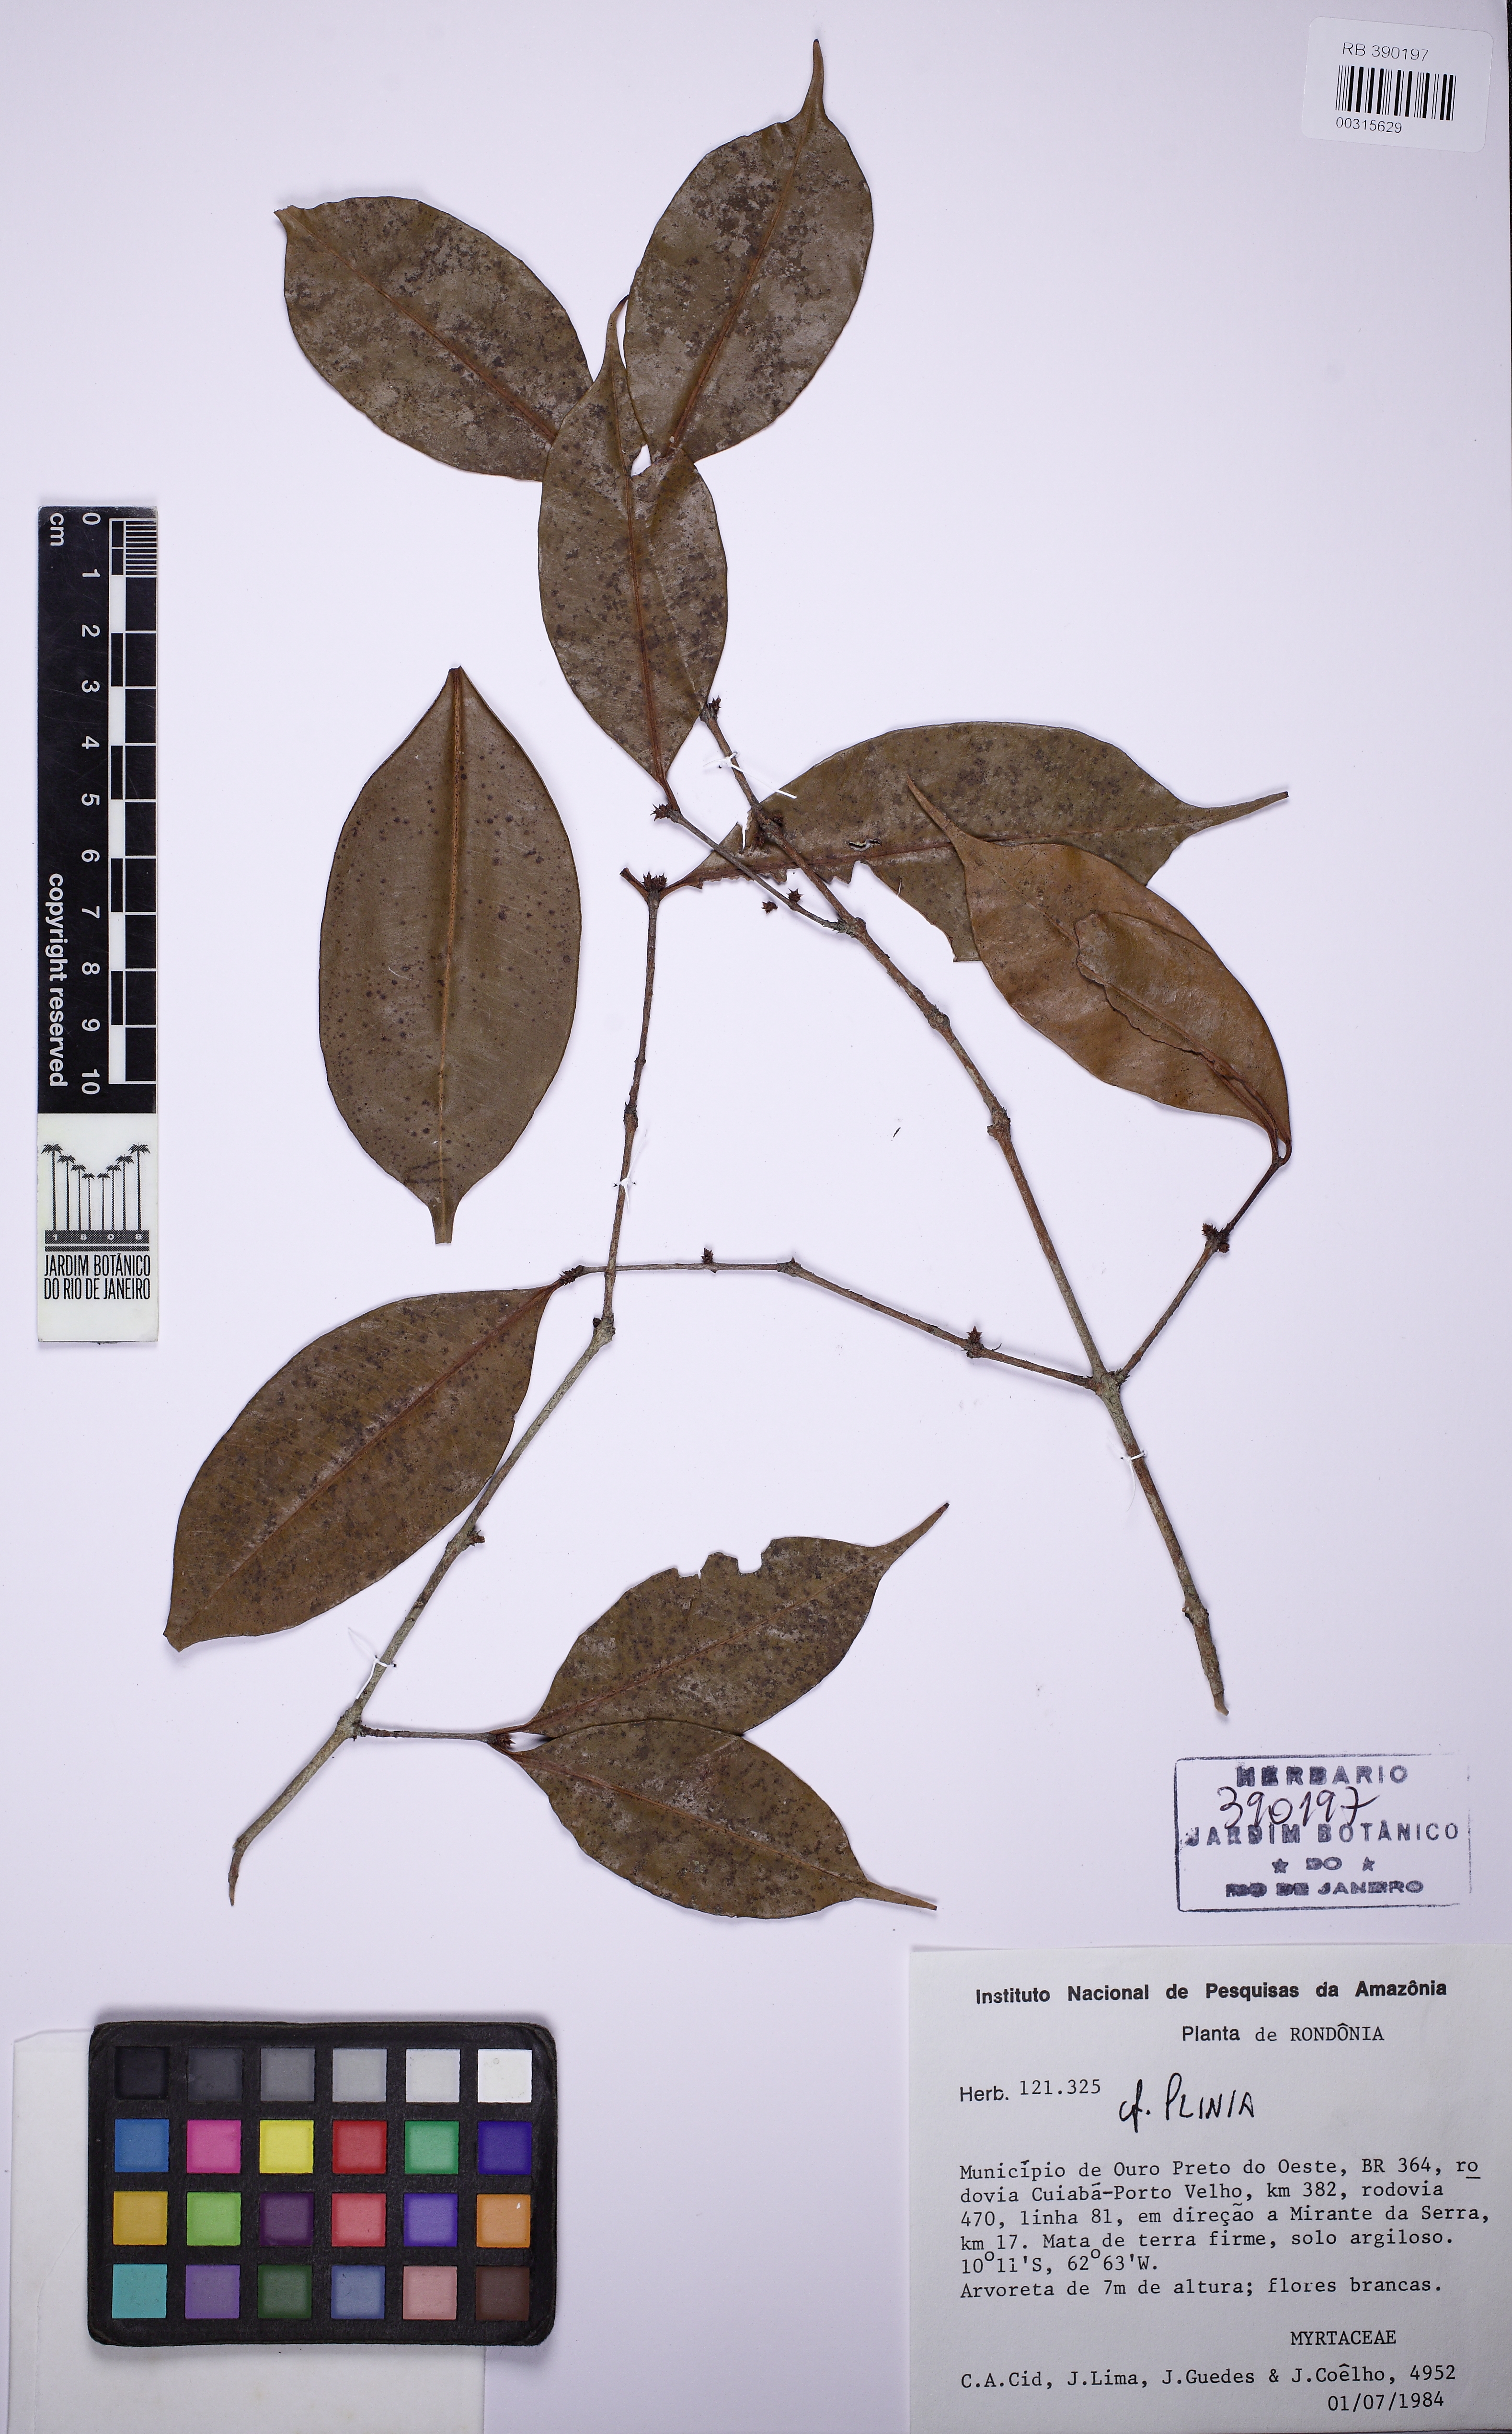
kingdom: Plantae
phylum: Tracheophyta
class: Magnoliopsida
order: Myrtales
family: Myrtaceae
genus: Plinia
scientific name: Plinia
